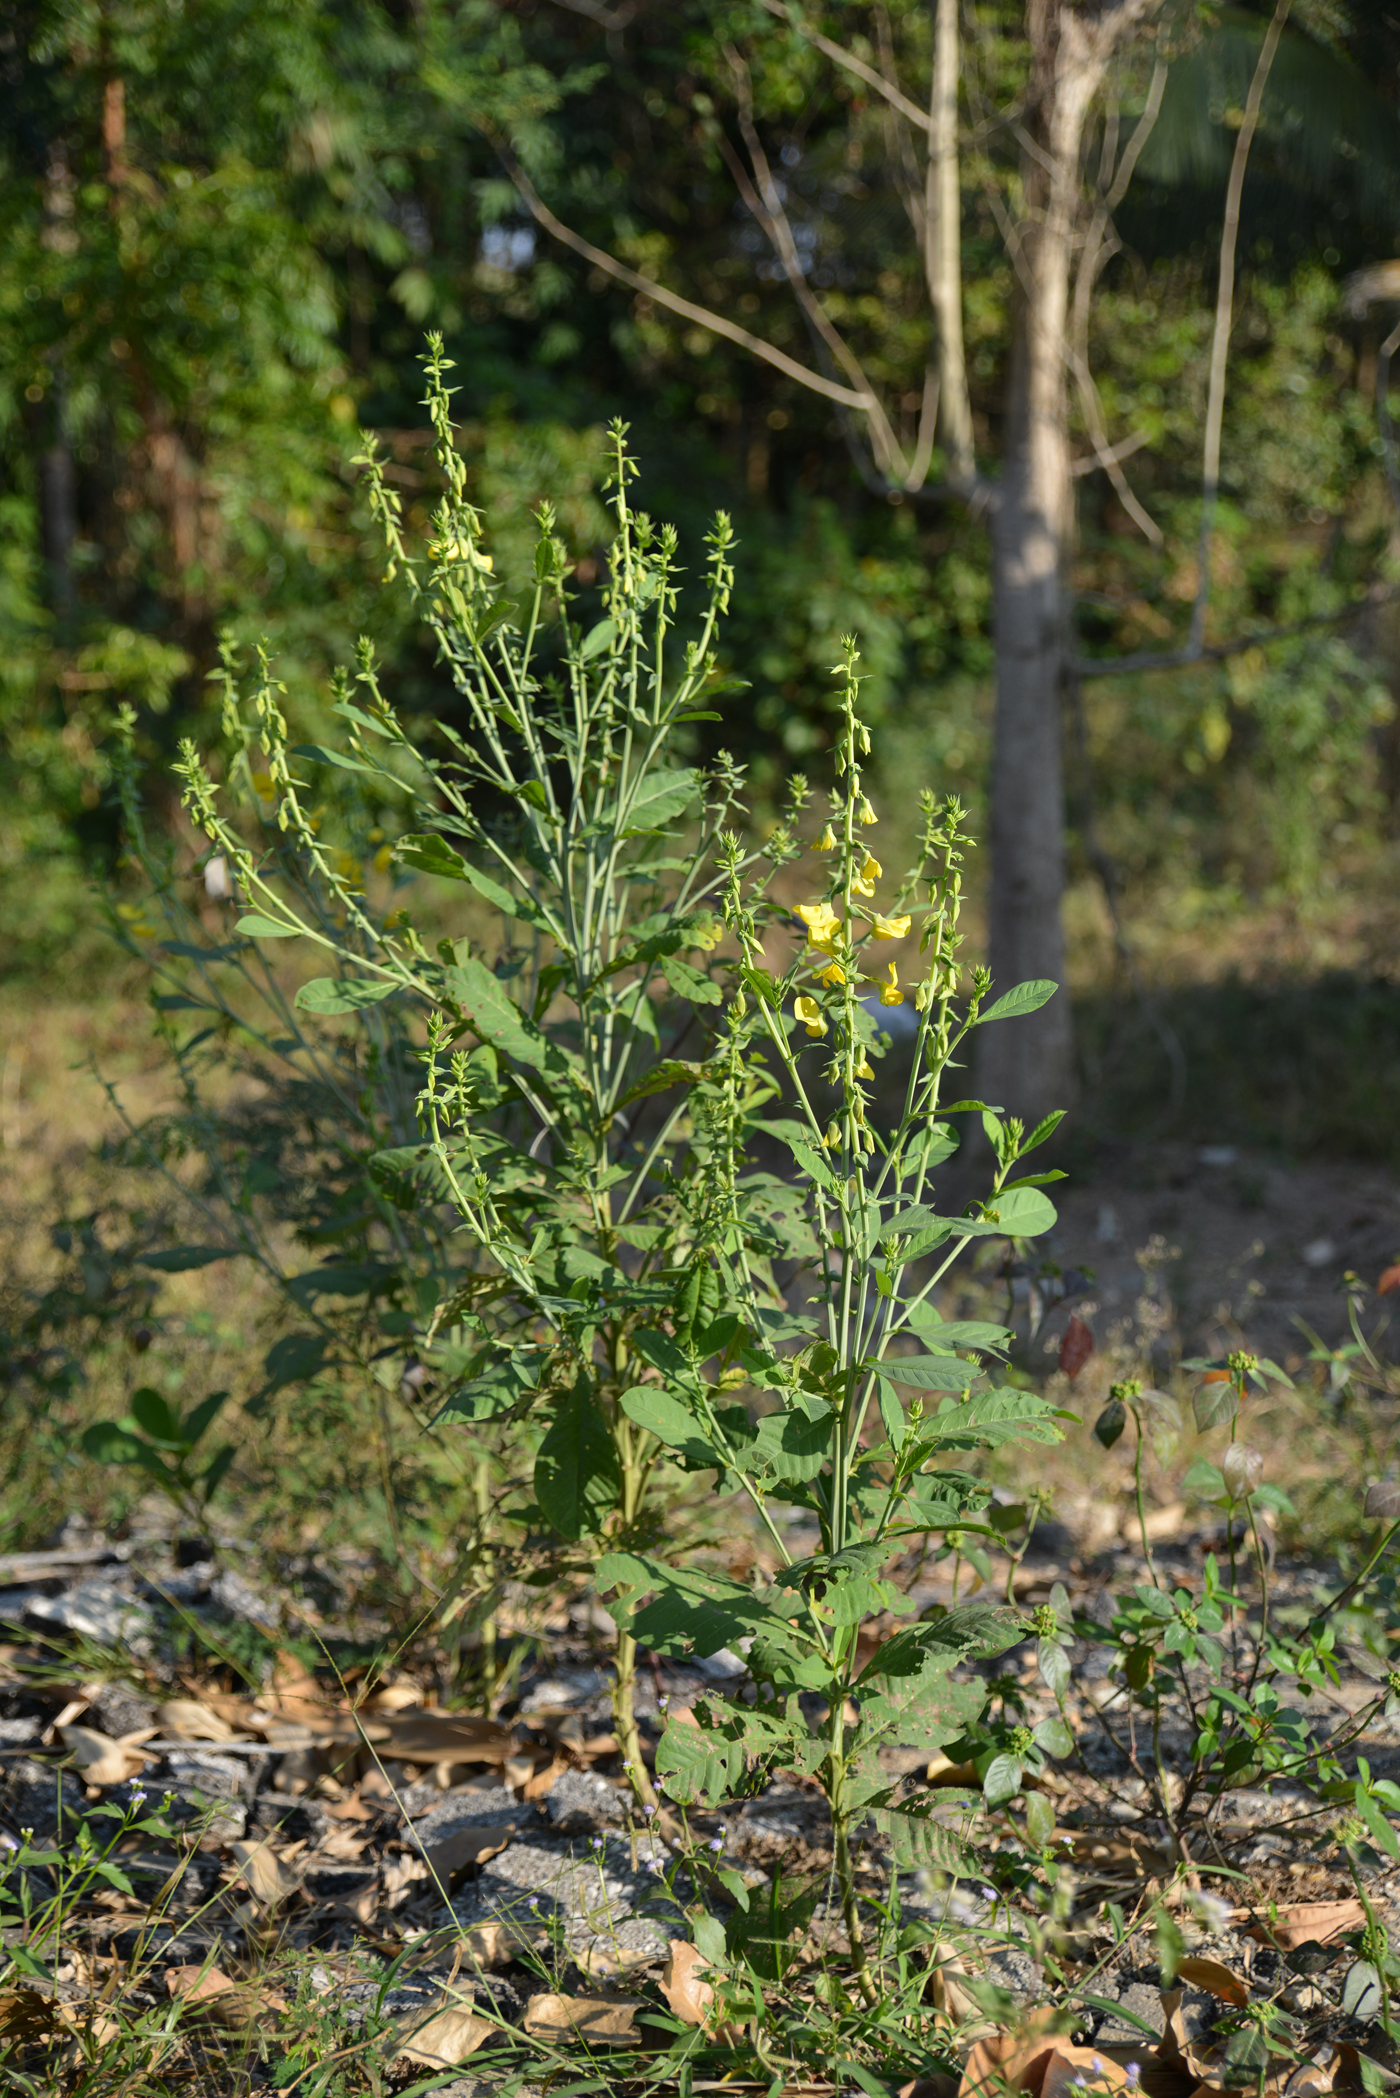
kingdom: Plantae
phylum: Tracheophyta
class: Magnoliopsida
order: Fabales
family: Fabaceae
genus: Crotalaria
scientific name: Crotalaria spectabilis
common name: Showy rattlebox
